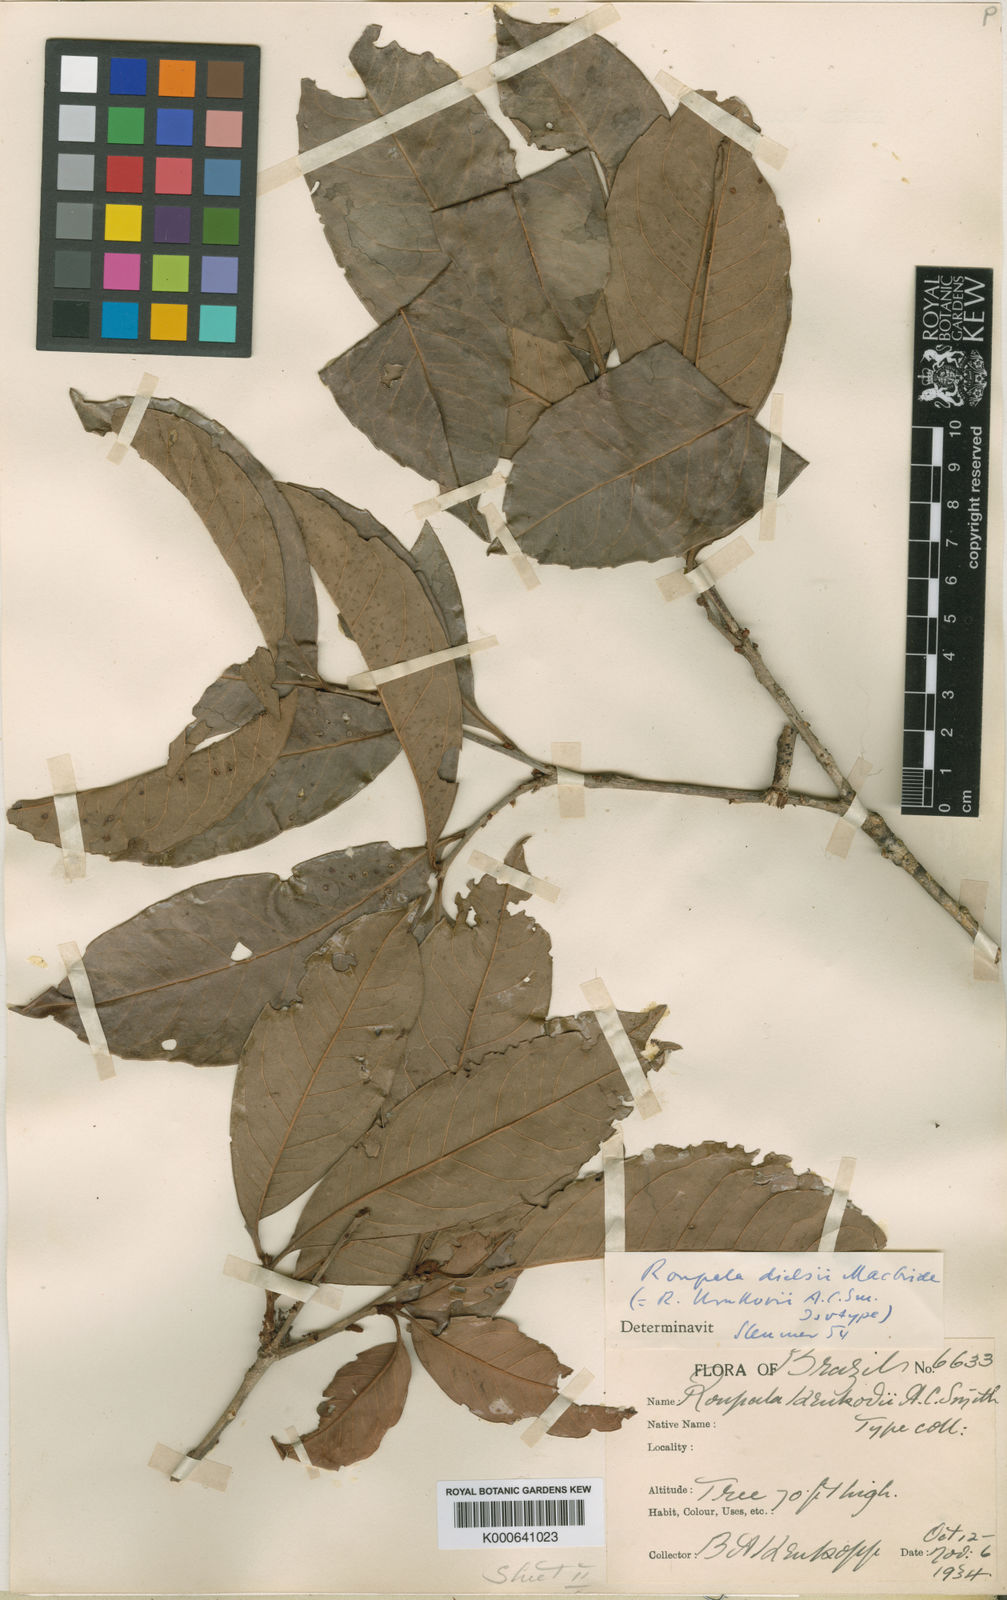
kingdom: Plantae
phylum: Tracheophyta
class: Magnoliopsida
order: Proteales
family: Proteaceae
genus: Roupala
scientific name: Roupala dielsii
